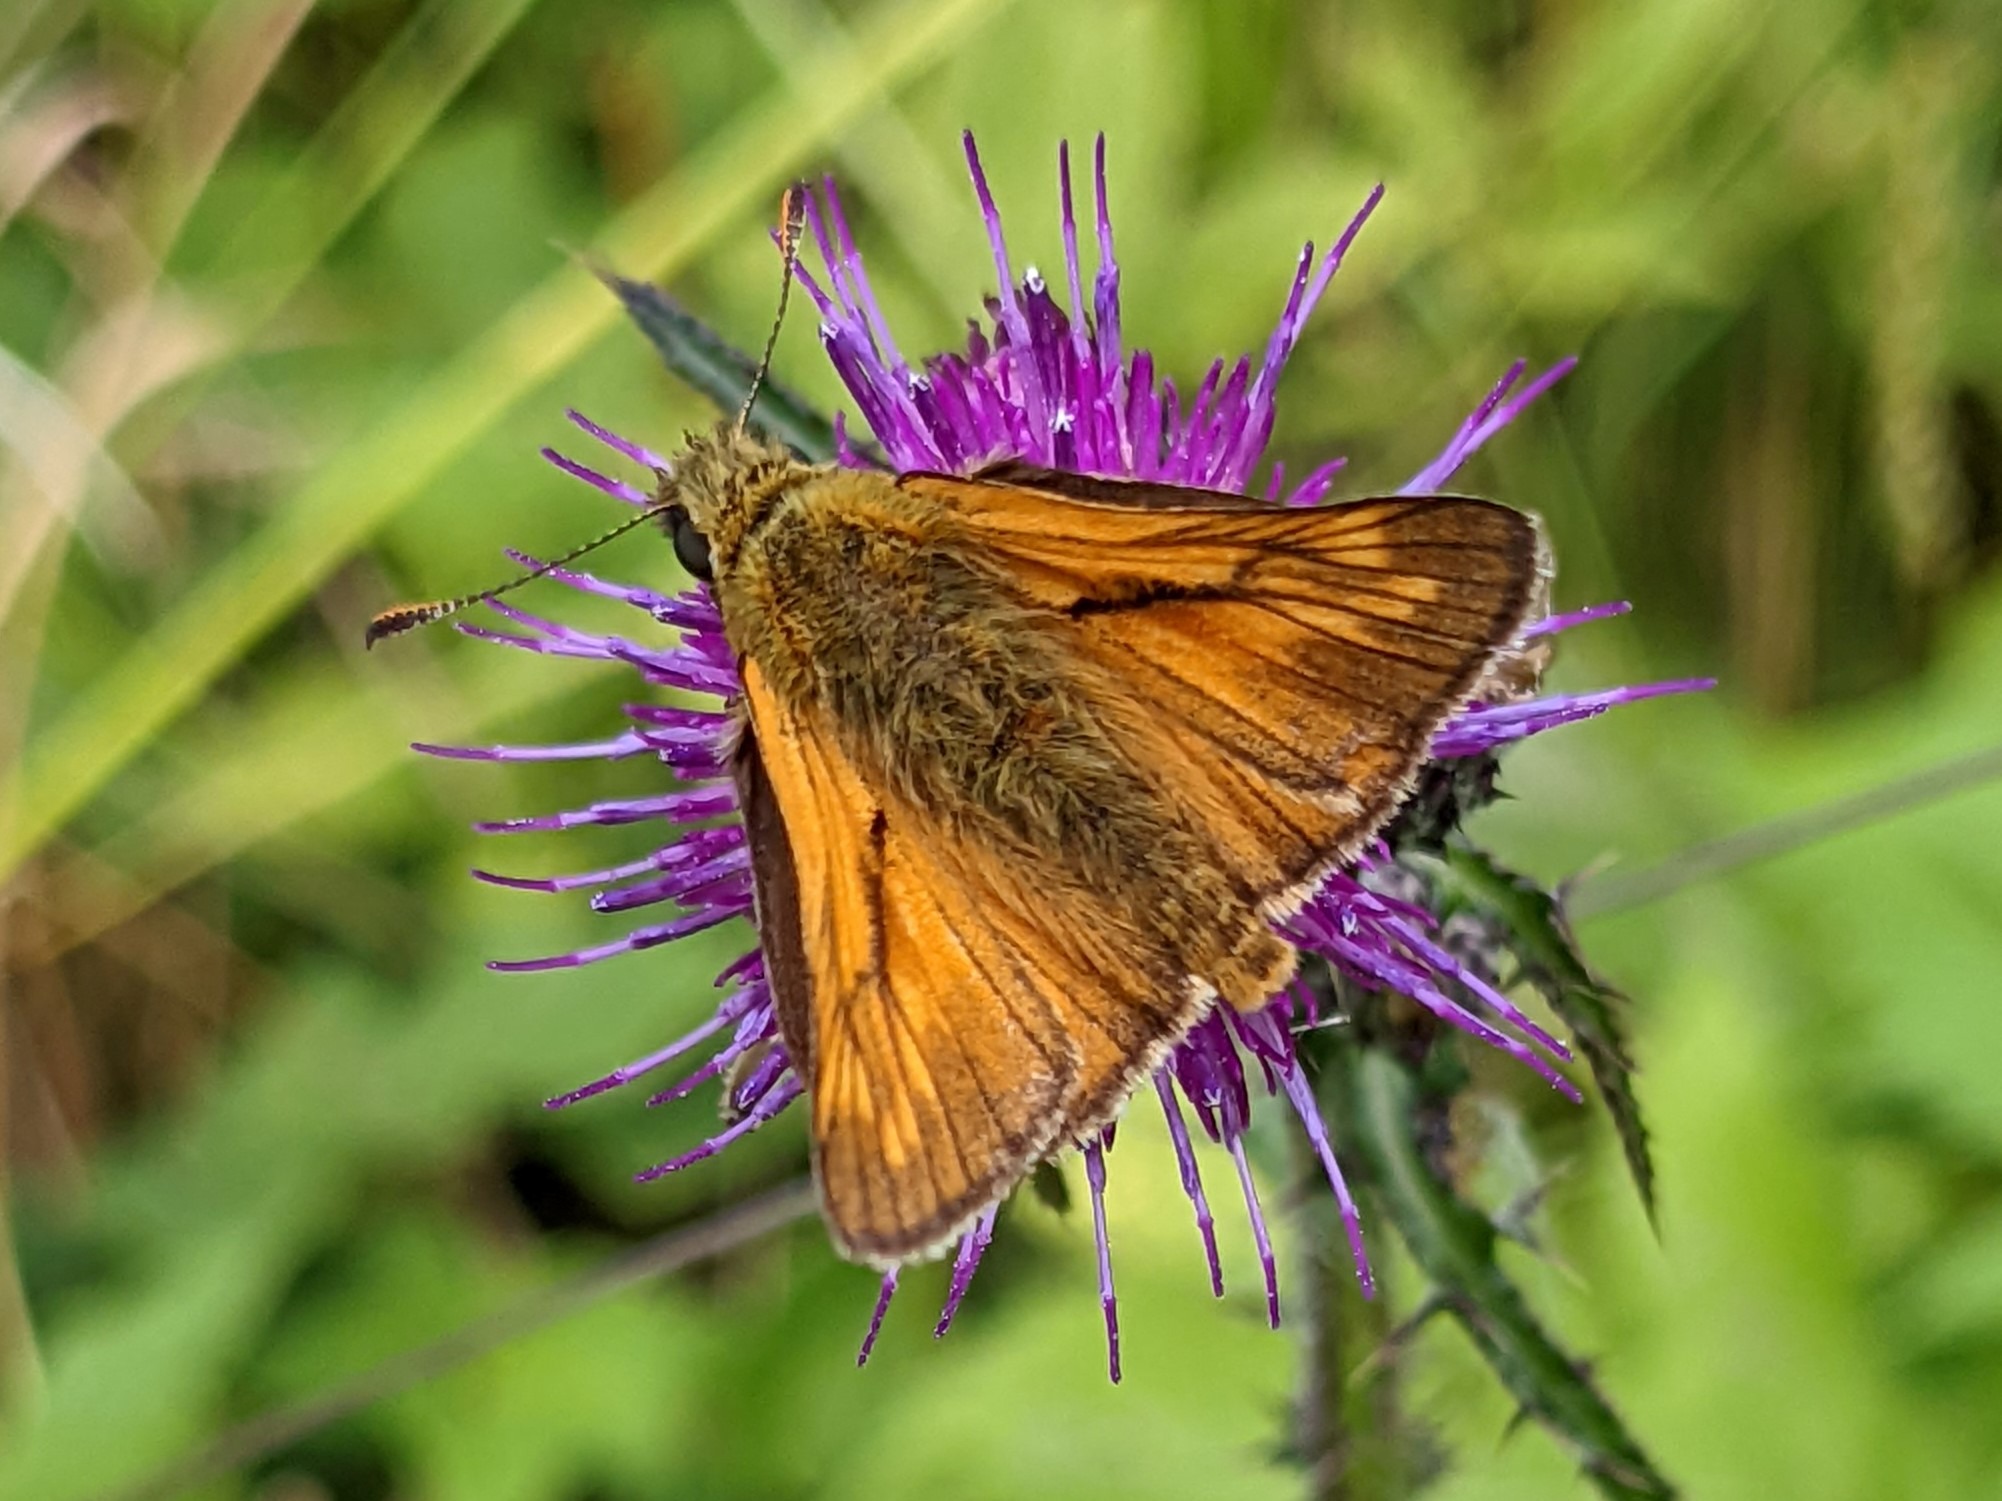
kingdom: Animalia
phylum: Arthropoda
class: Insecta
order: Lepidoptera
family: Hesperiidae
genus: Ochlodes
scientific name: Ochlodes venata
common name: Stor bredpande
